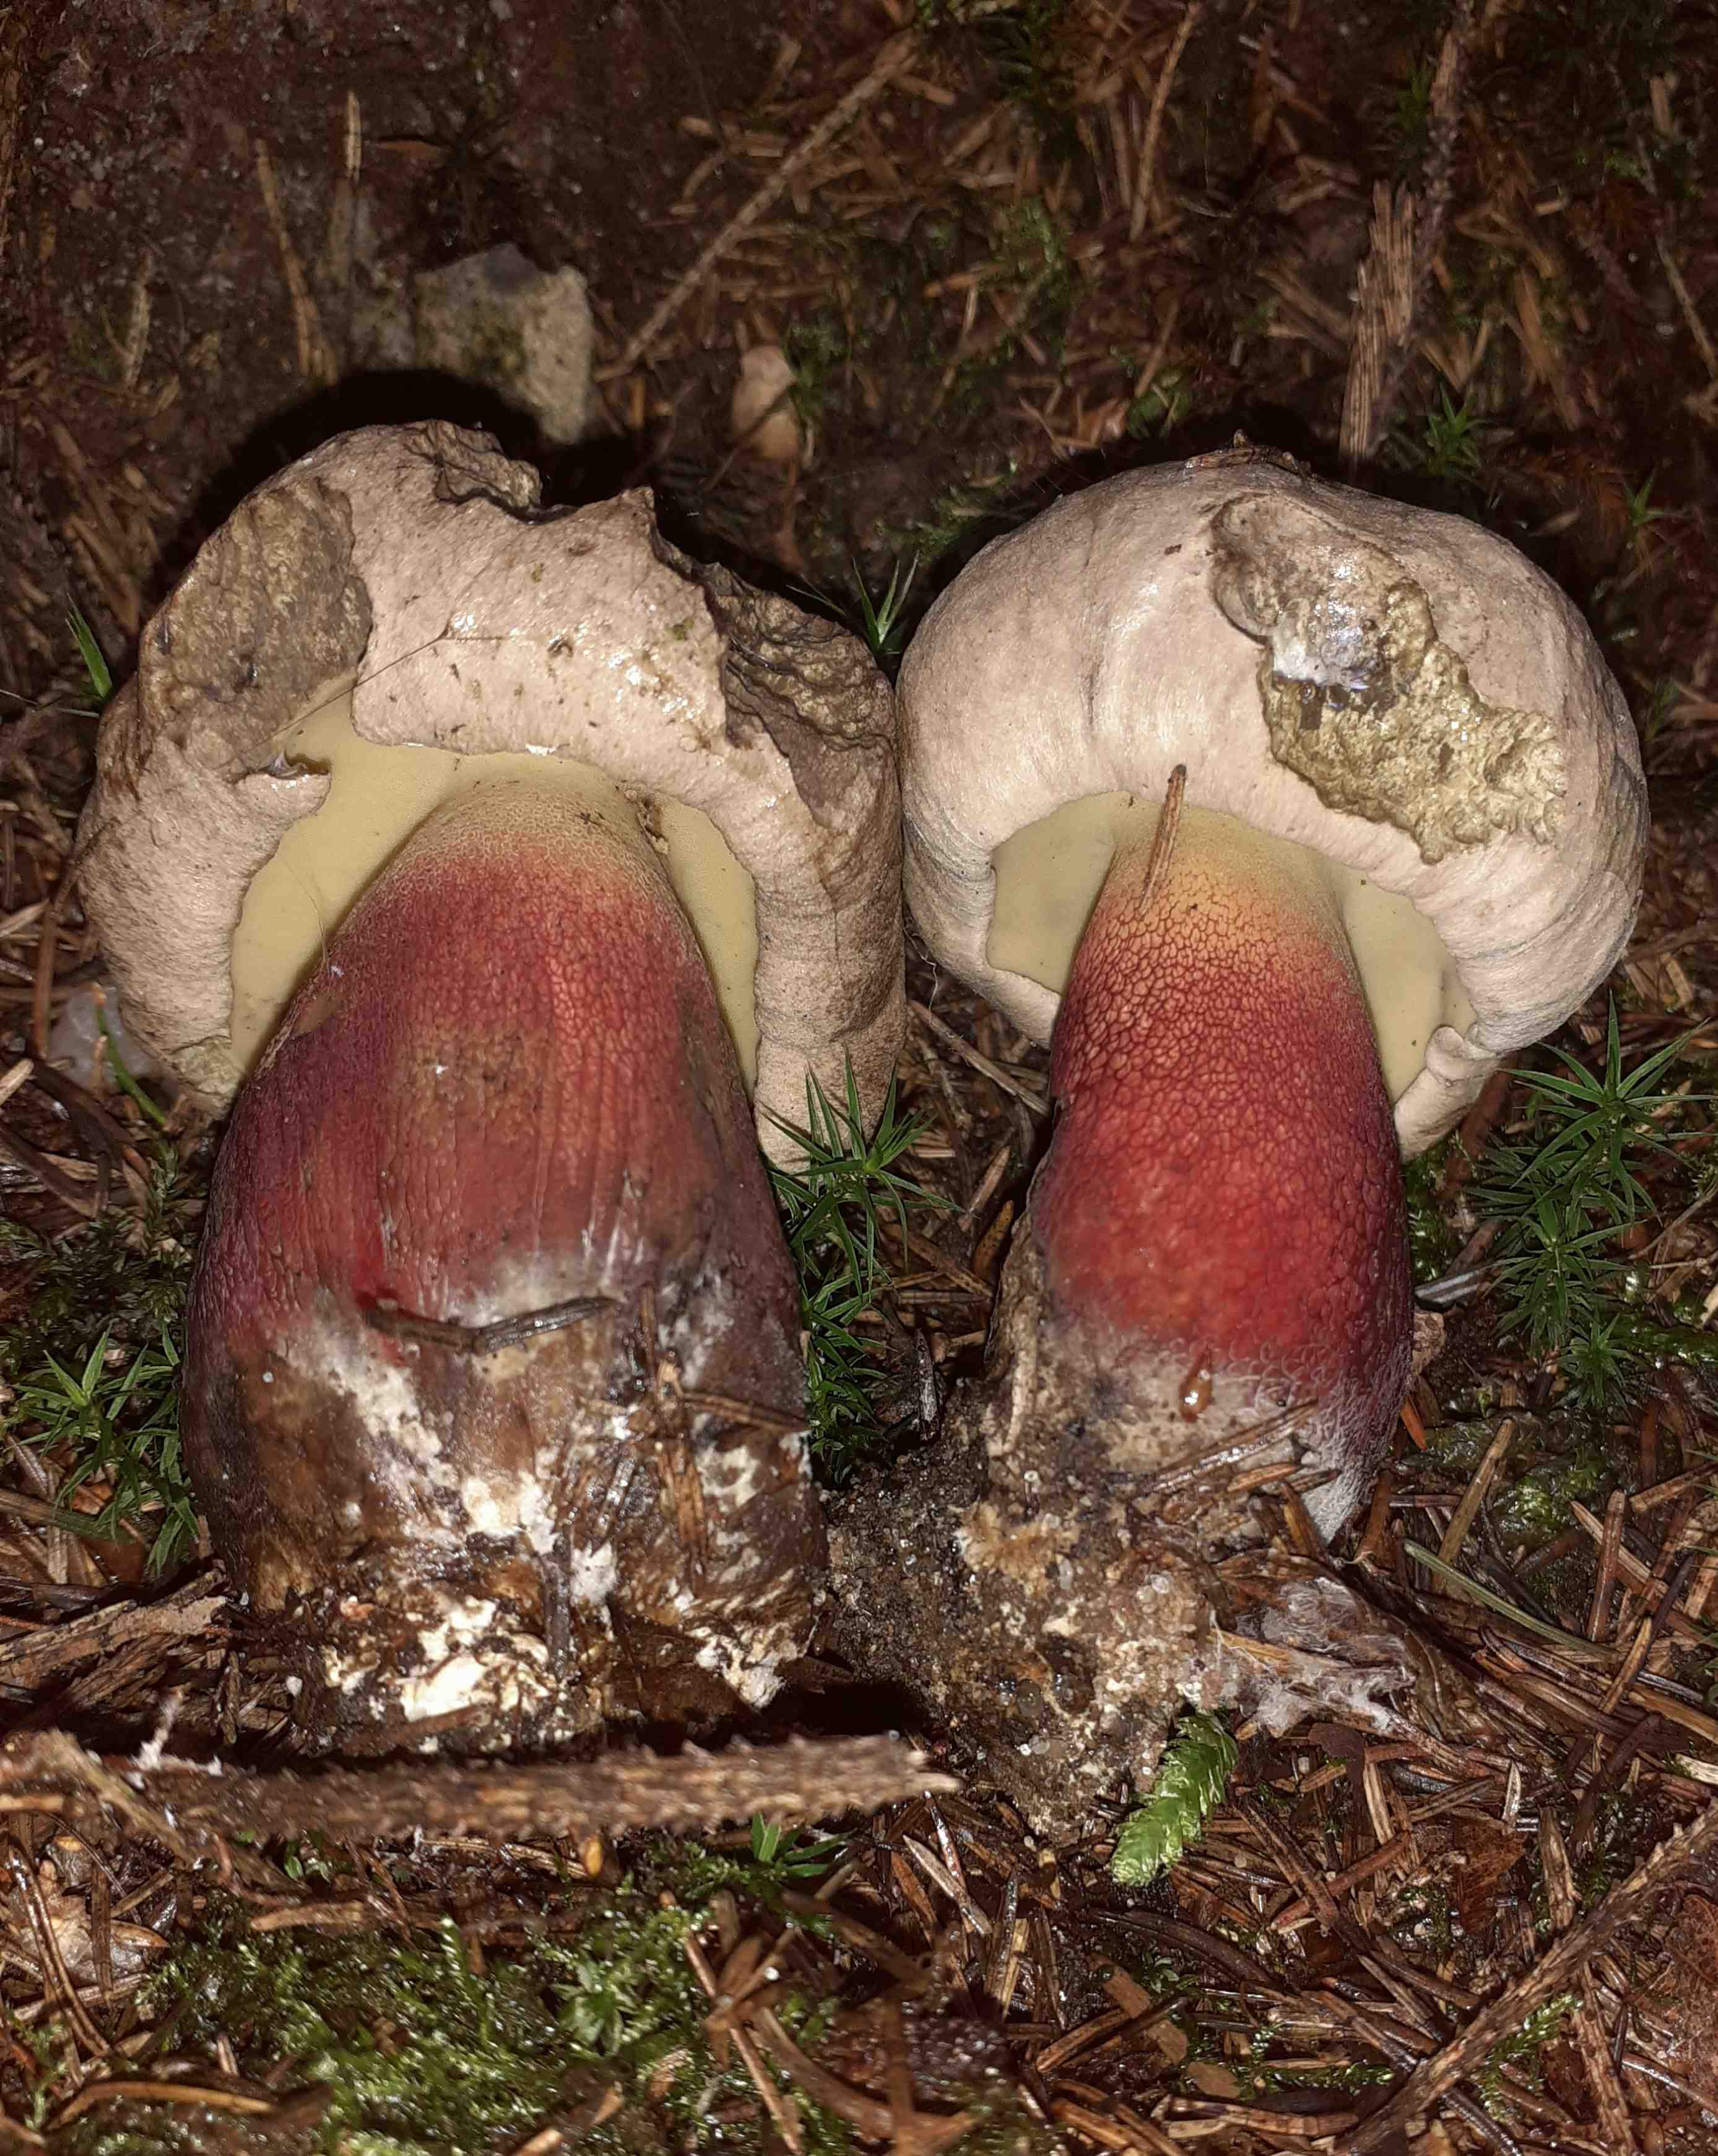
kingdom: Fungi
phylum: Basidiomycota
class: Agaricomycetes
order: Boletales
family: Boletaceae
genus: Caloboletus
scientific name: Caloboletus calopus
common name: skønfodet rørhat
